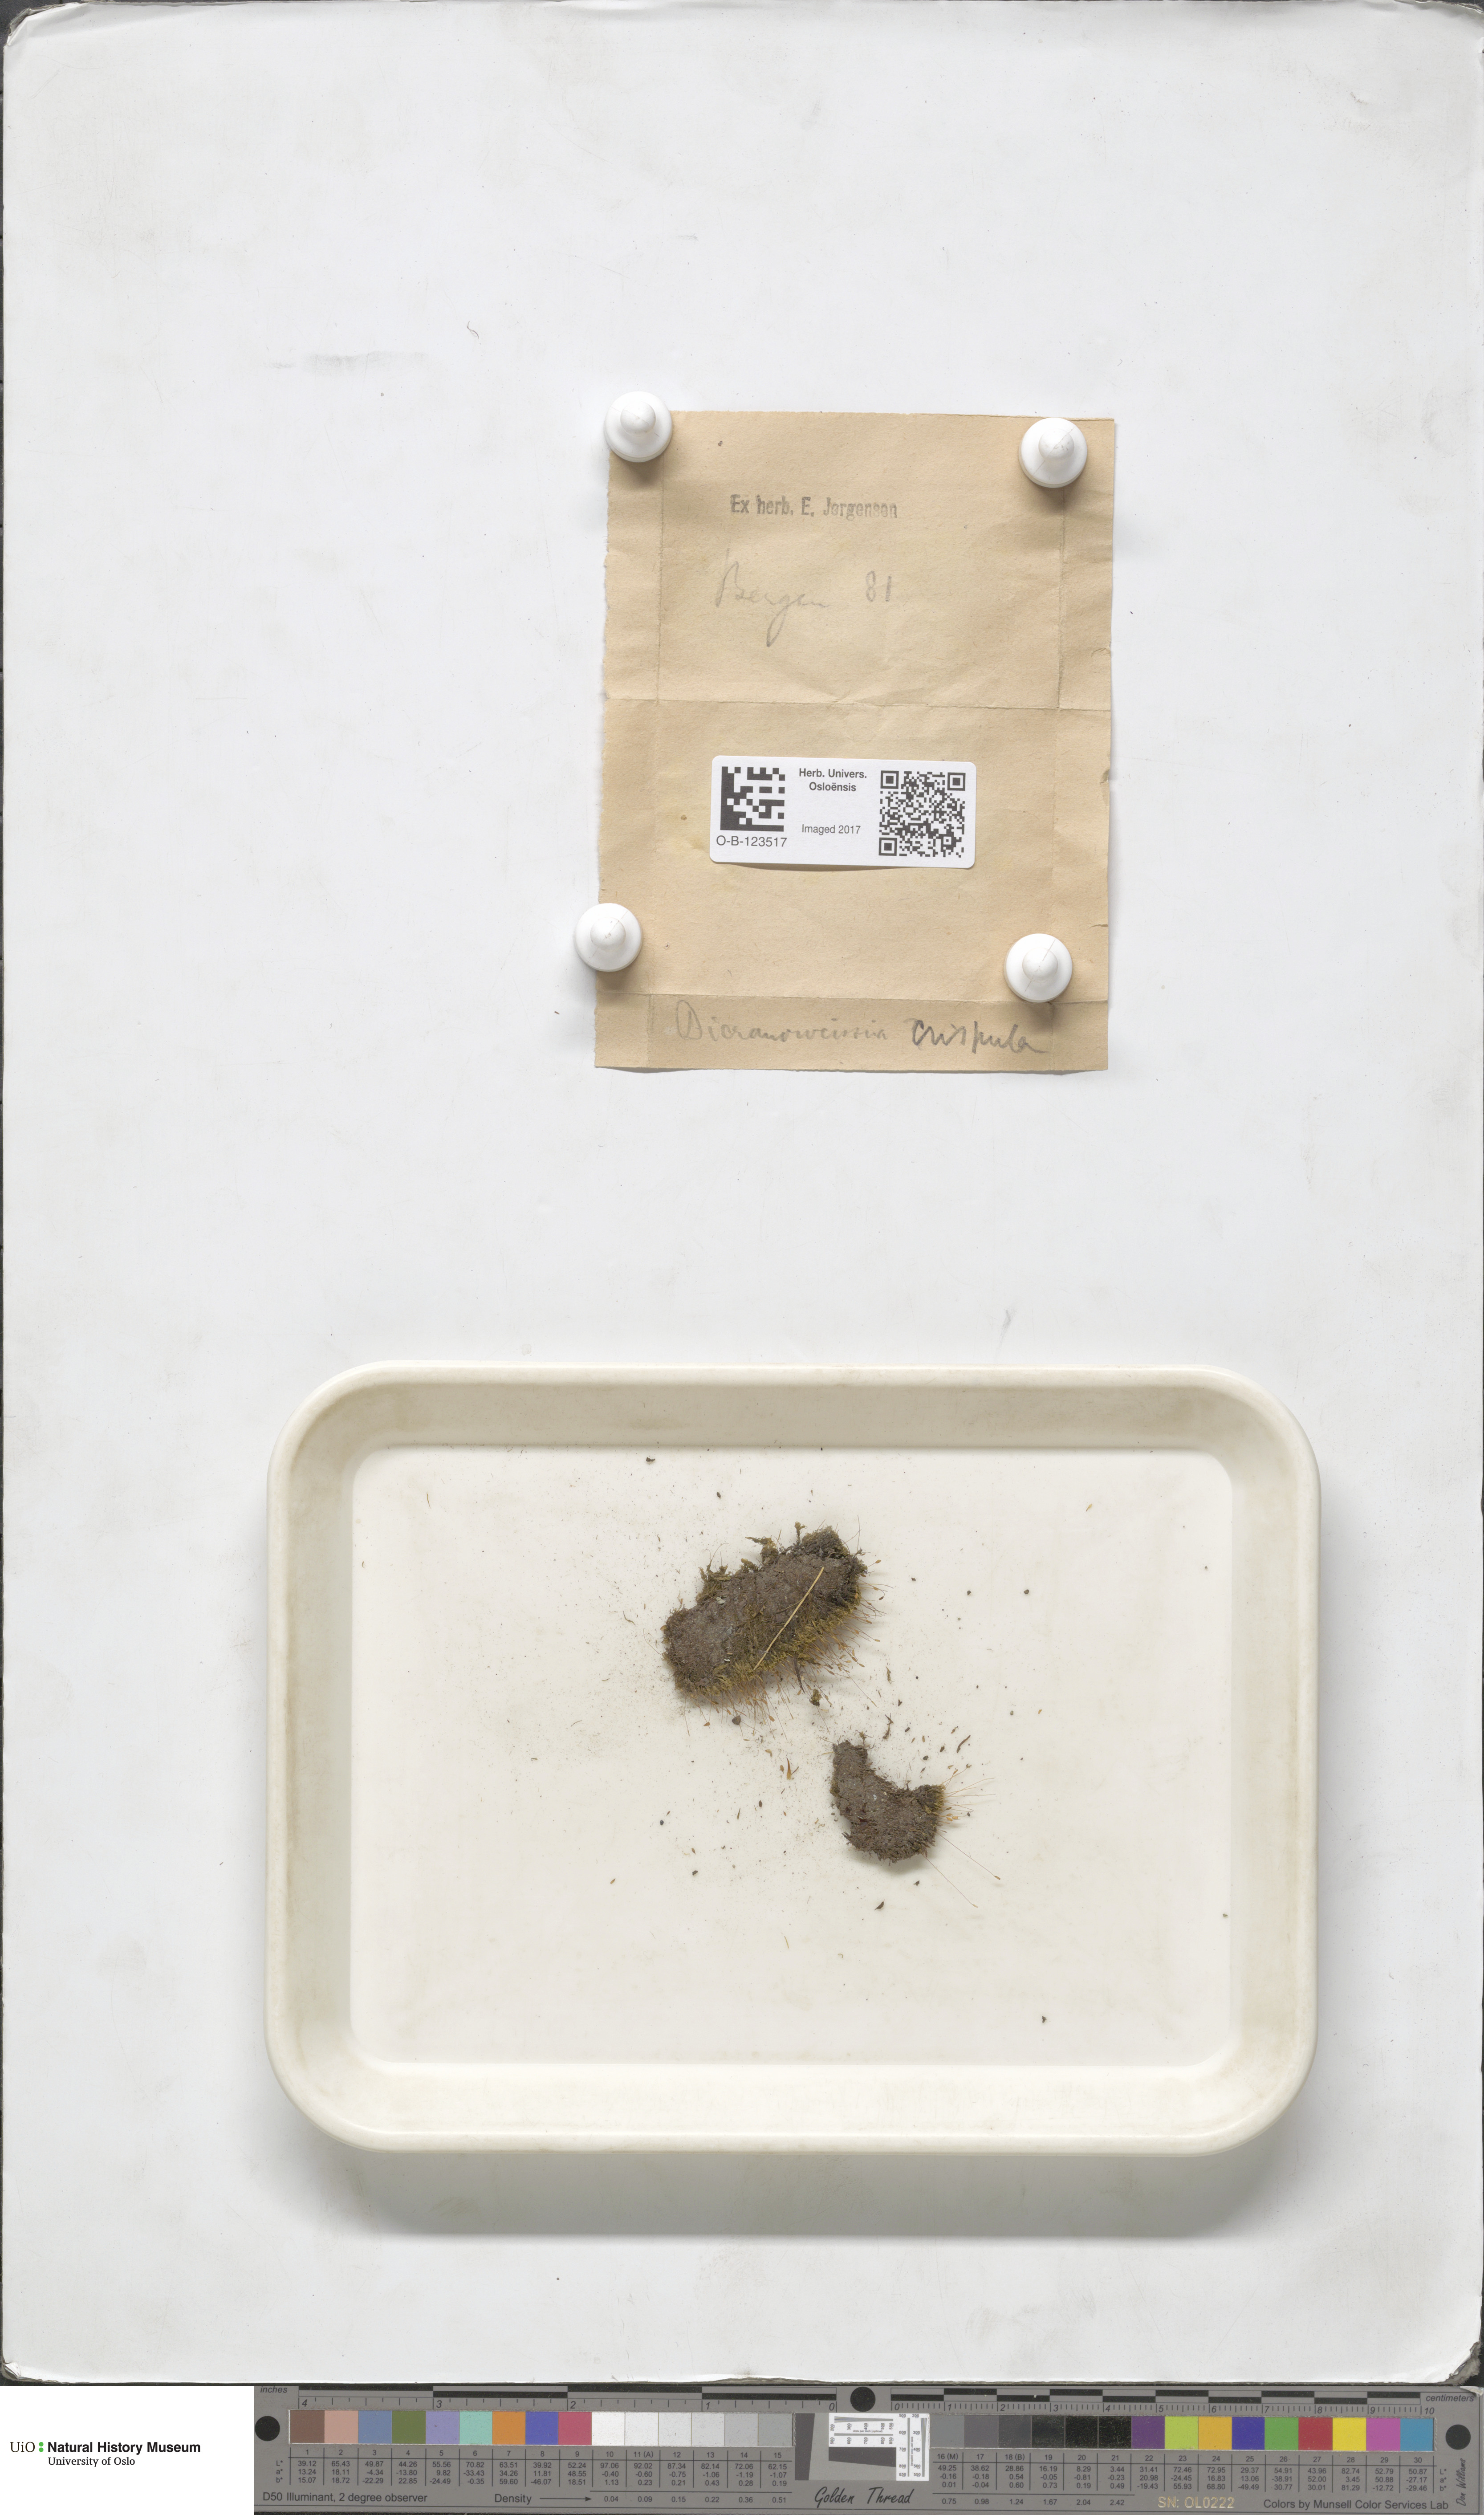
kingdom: Plantae
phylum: Bryophyta
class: Bryopsida
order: Scouleriales
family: Hymenolomataceae
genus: Hymenoloma
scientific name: Hymenoloma crispulum
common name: Mountain pincushion
